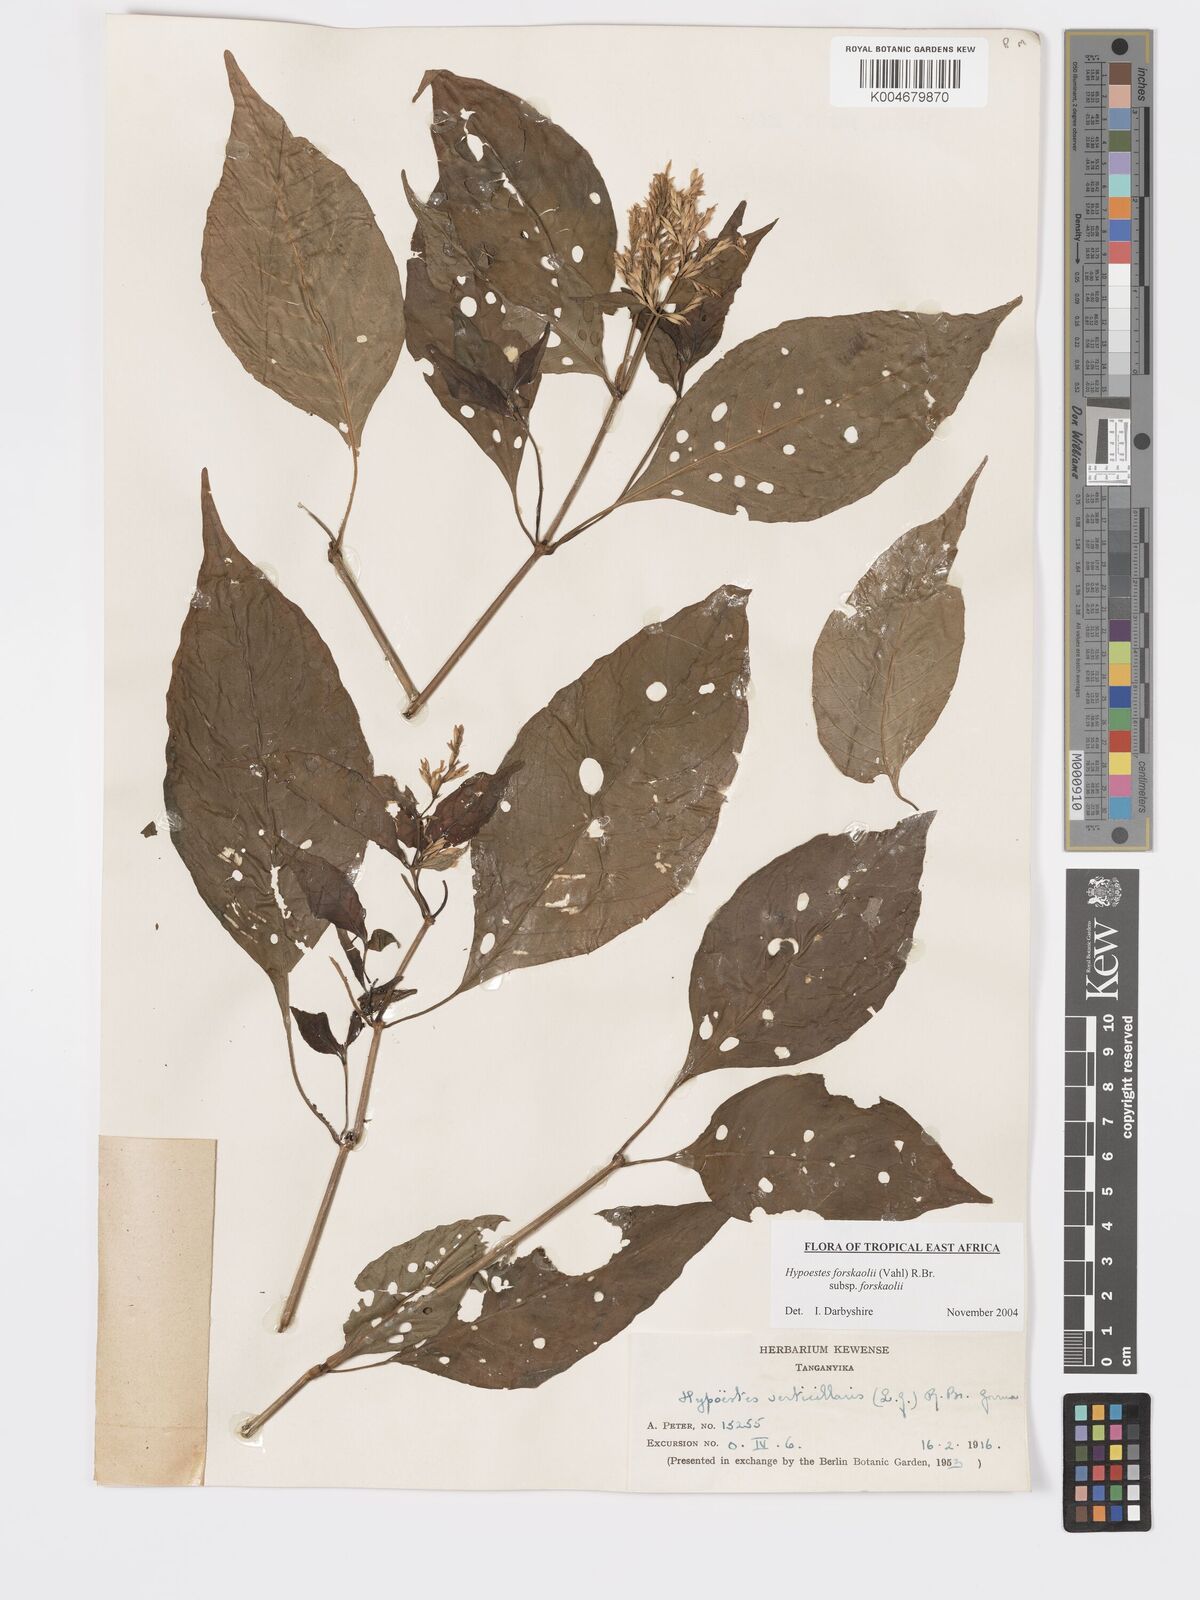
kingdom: Plantae
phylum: Tracheophyta
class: Magnoliopsida
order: Lamiales
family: Acanthaceae
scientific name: Acanthaceae
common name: Acanthaceae
